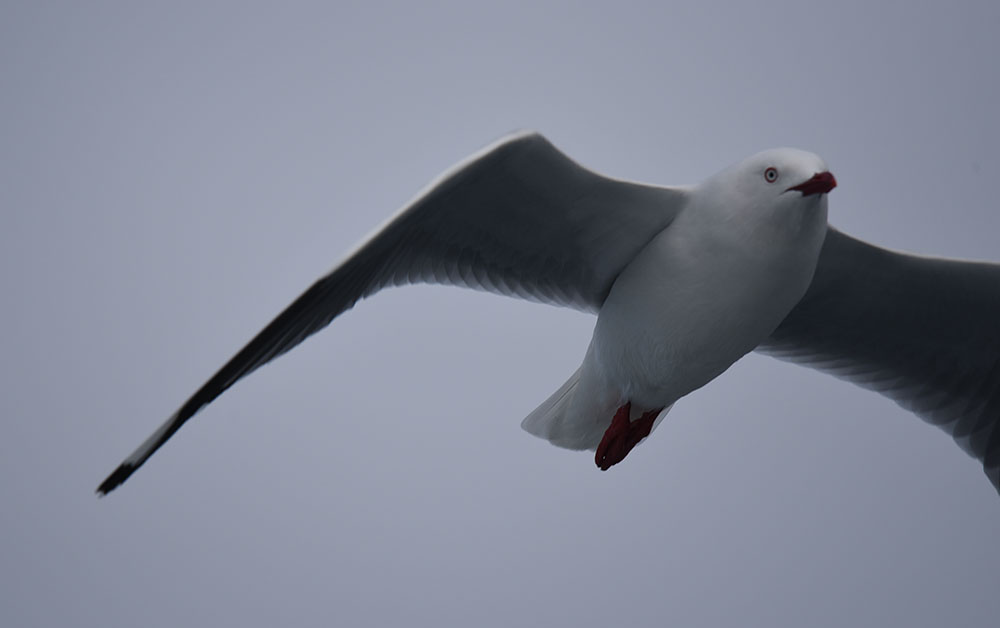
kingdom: Animalia
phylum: Chordata
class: Aves
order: Charadriiformes
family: Laridae
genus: Chroicocephalus
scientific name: Chroicocephalus novaehollandiae
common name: Silver gull
